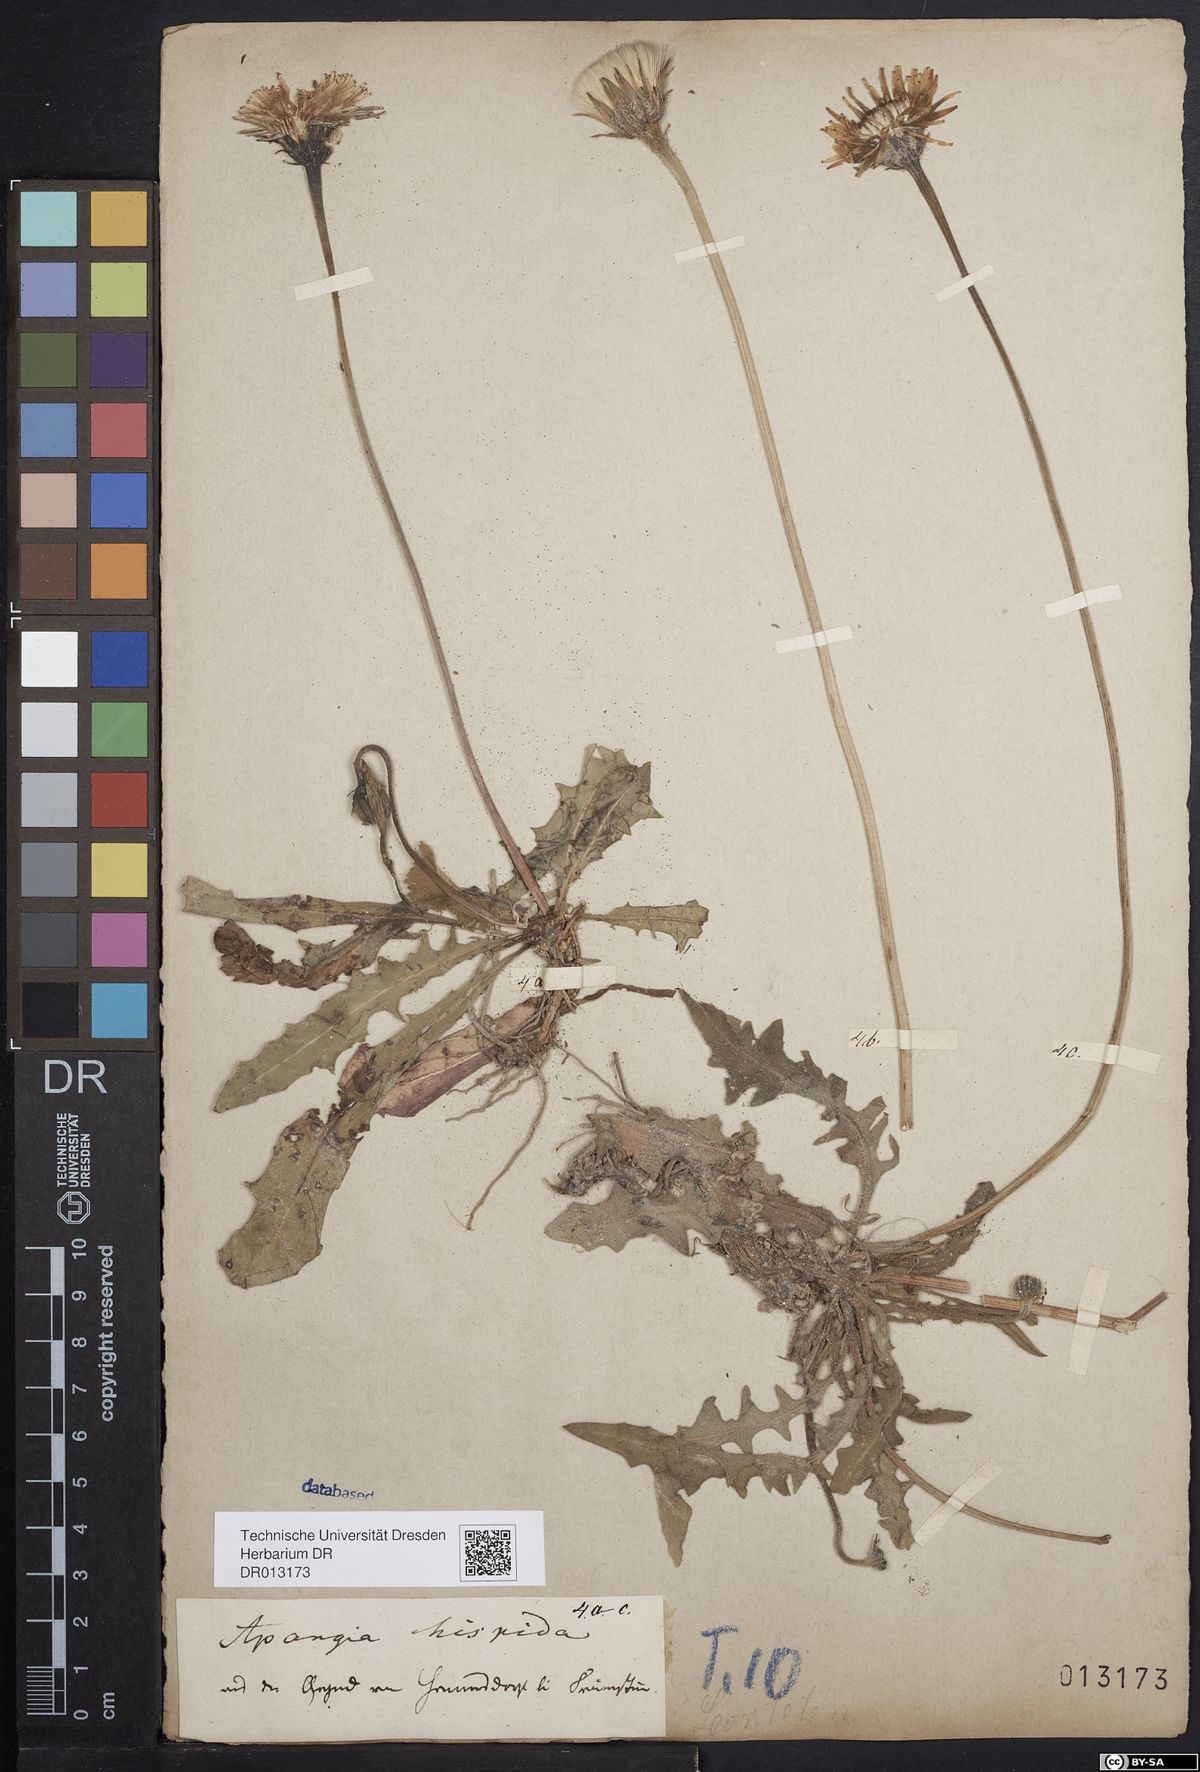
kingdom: Plantae
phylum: Tracheophyta
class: Magnoliopsida
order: Asterales
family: Asteraceae
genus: Leontodon
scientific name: Leontodon hispidus
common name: Rough hawkbit
